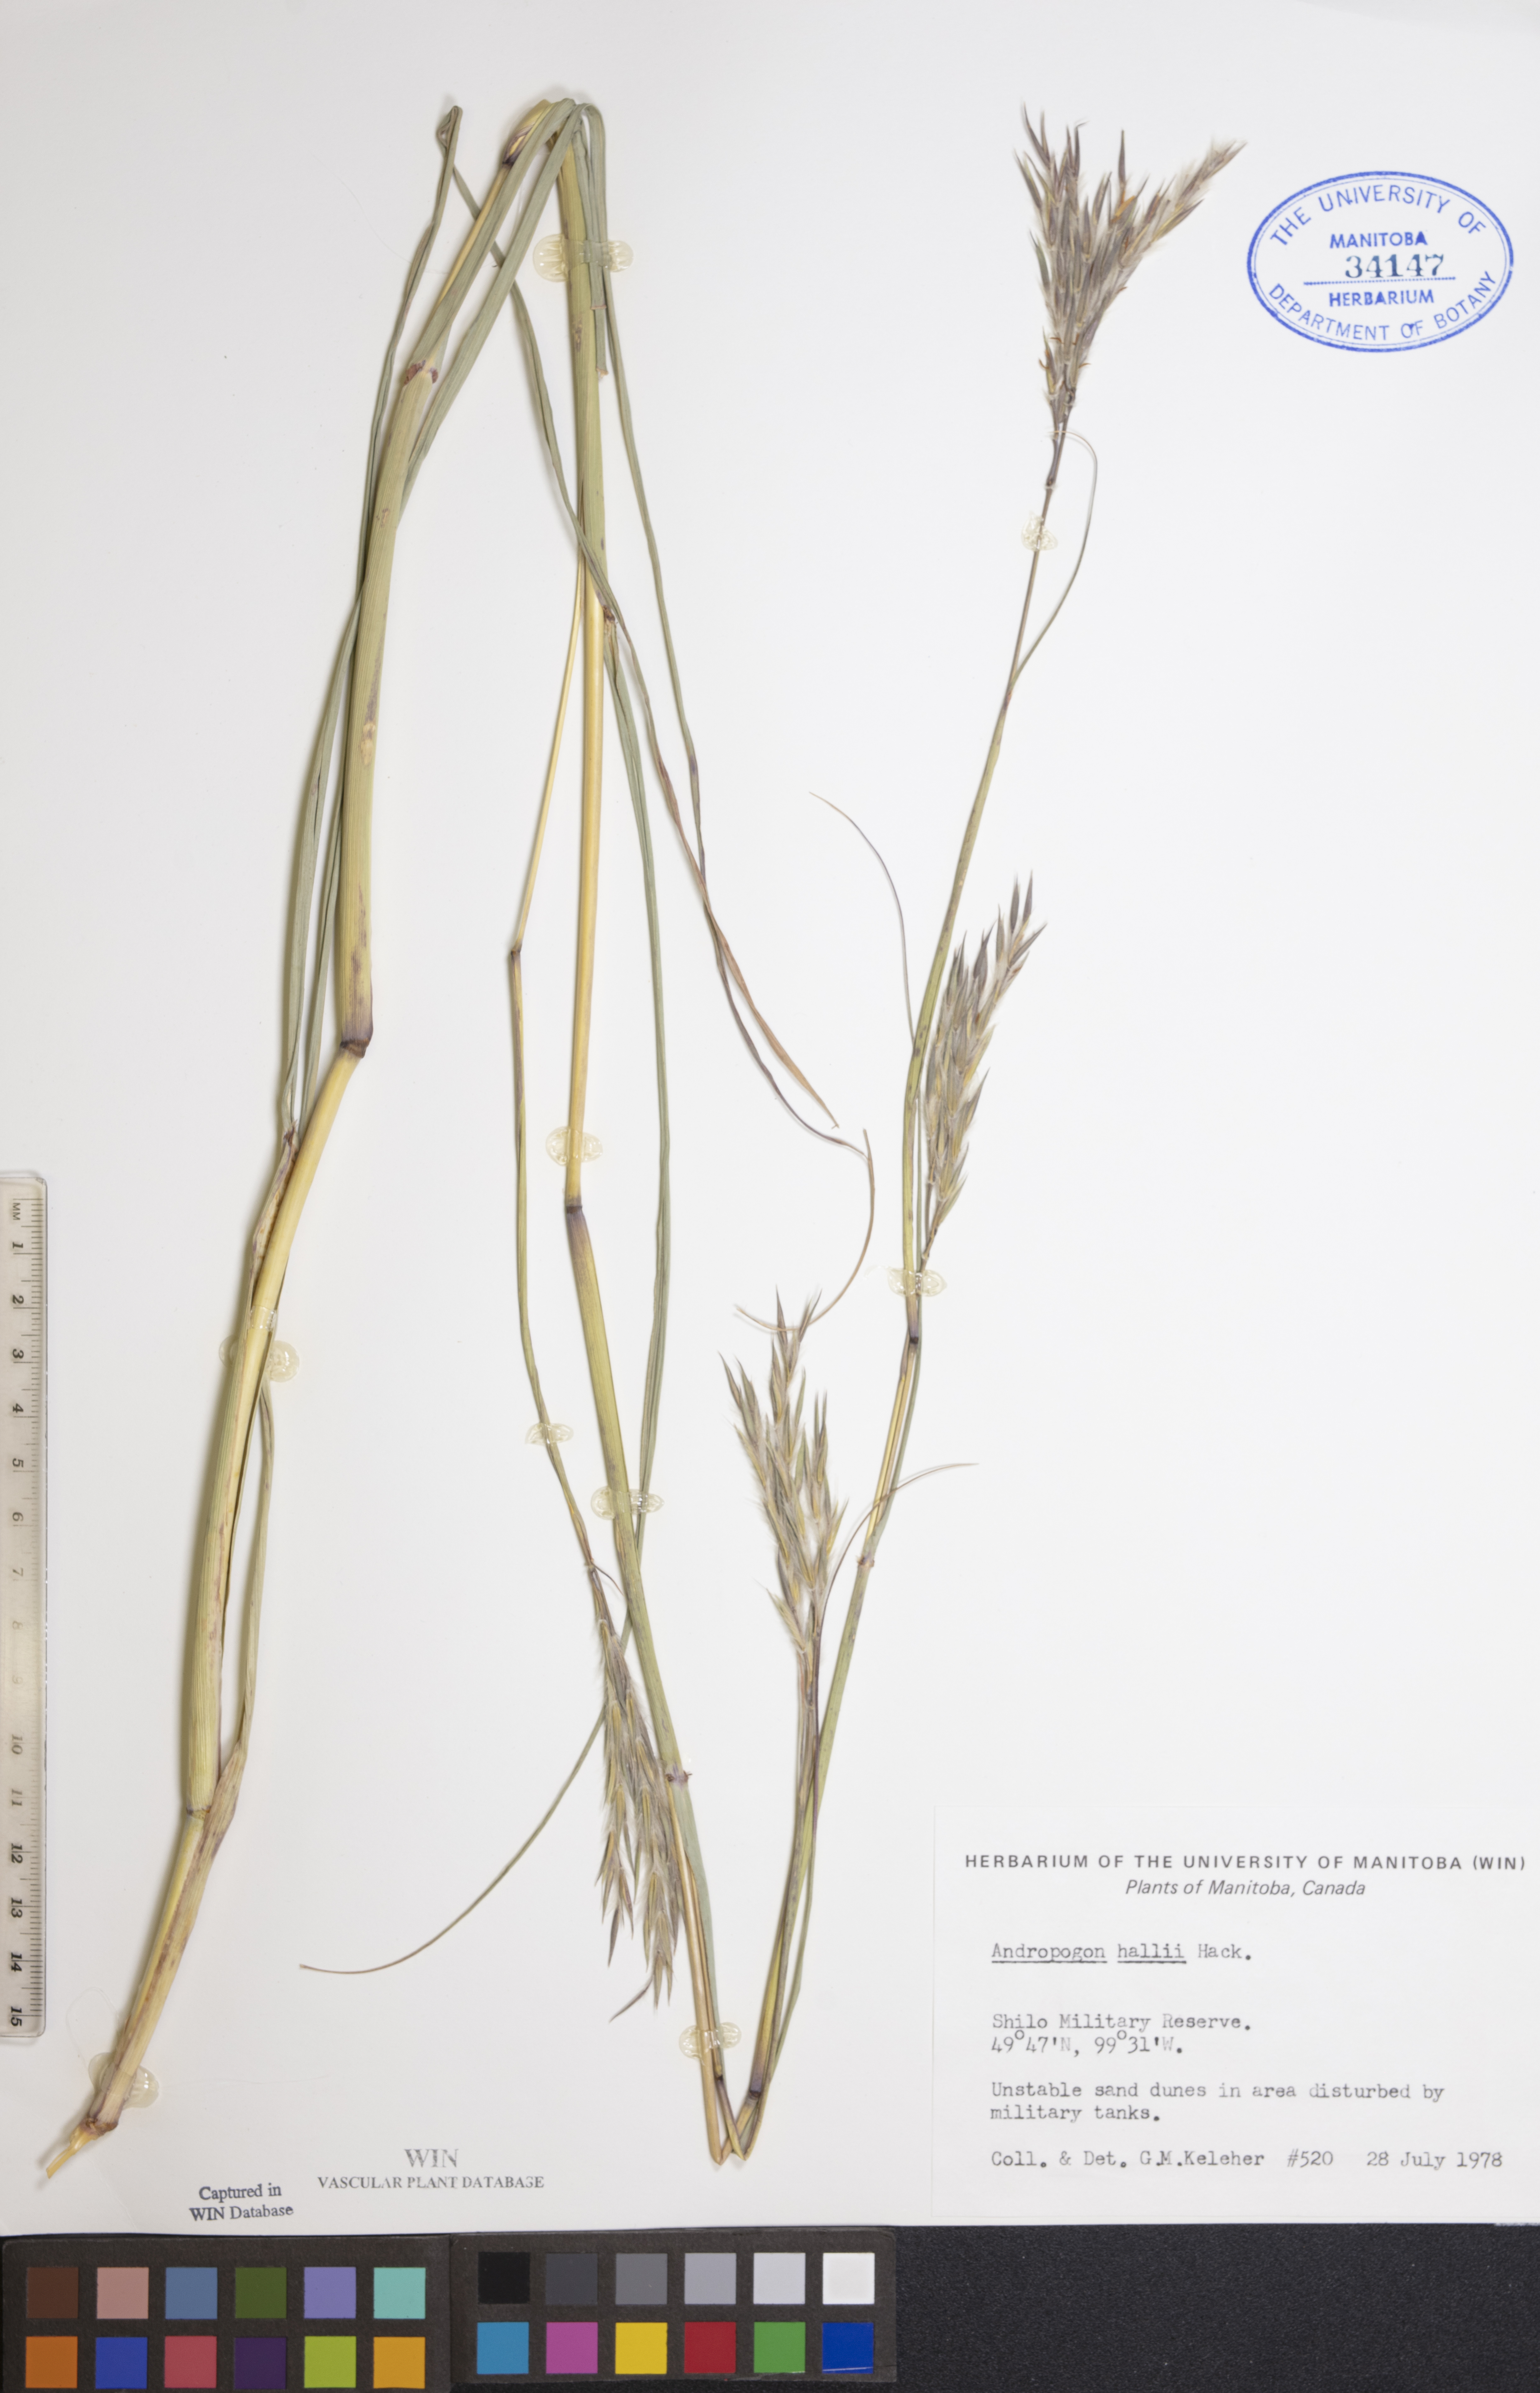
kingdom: Plantae
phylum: Tracheophyta
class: Liliopsida
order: Poales
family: Poaceae
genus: Andropogon
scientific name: Andropogon hallii
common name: Sand bluestem
